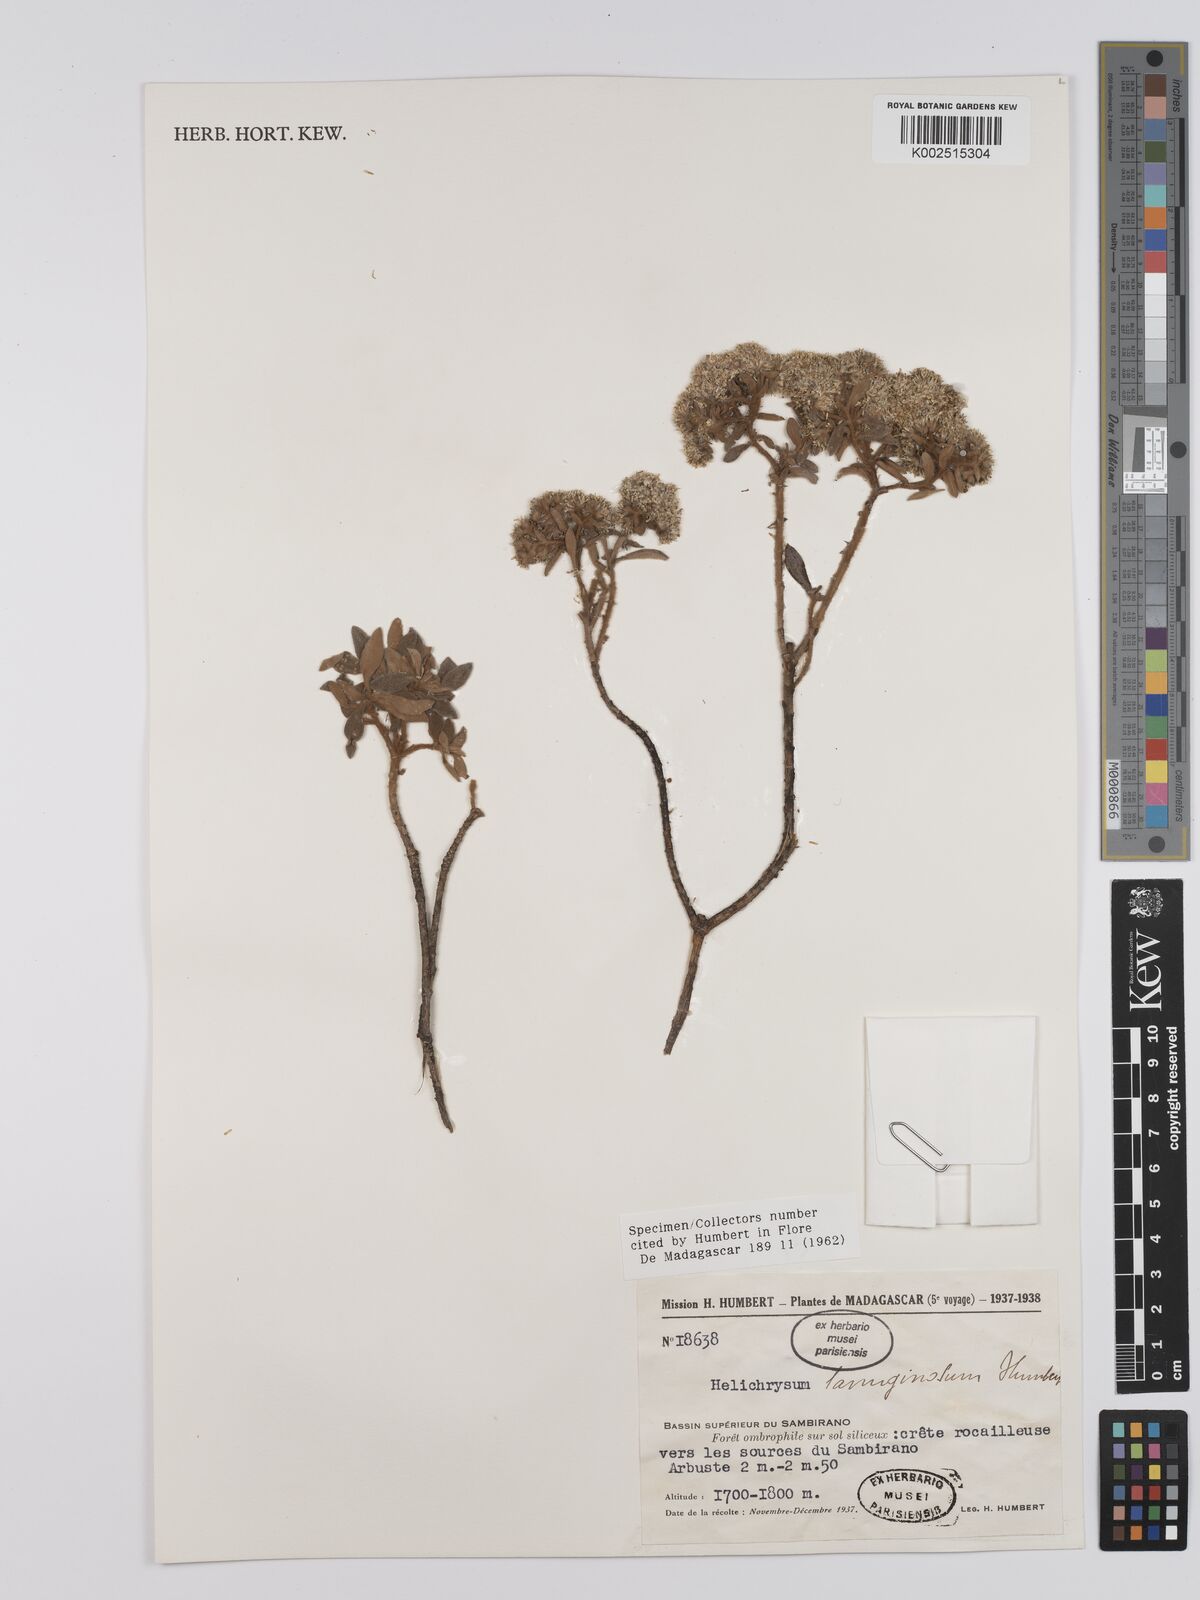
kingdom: Plantae
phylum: Tracheophyta
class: Magnoliopsida
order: Asterales
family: Asteraceae
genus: Helichrysum
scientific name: Helichrysum lanuginosum
